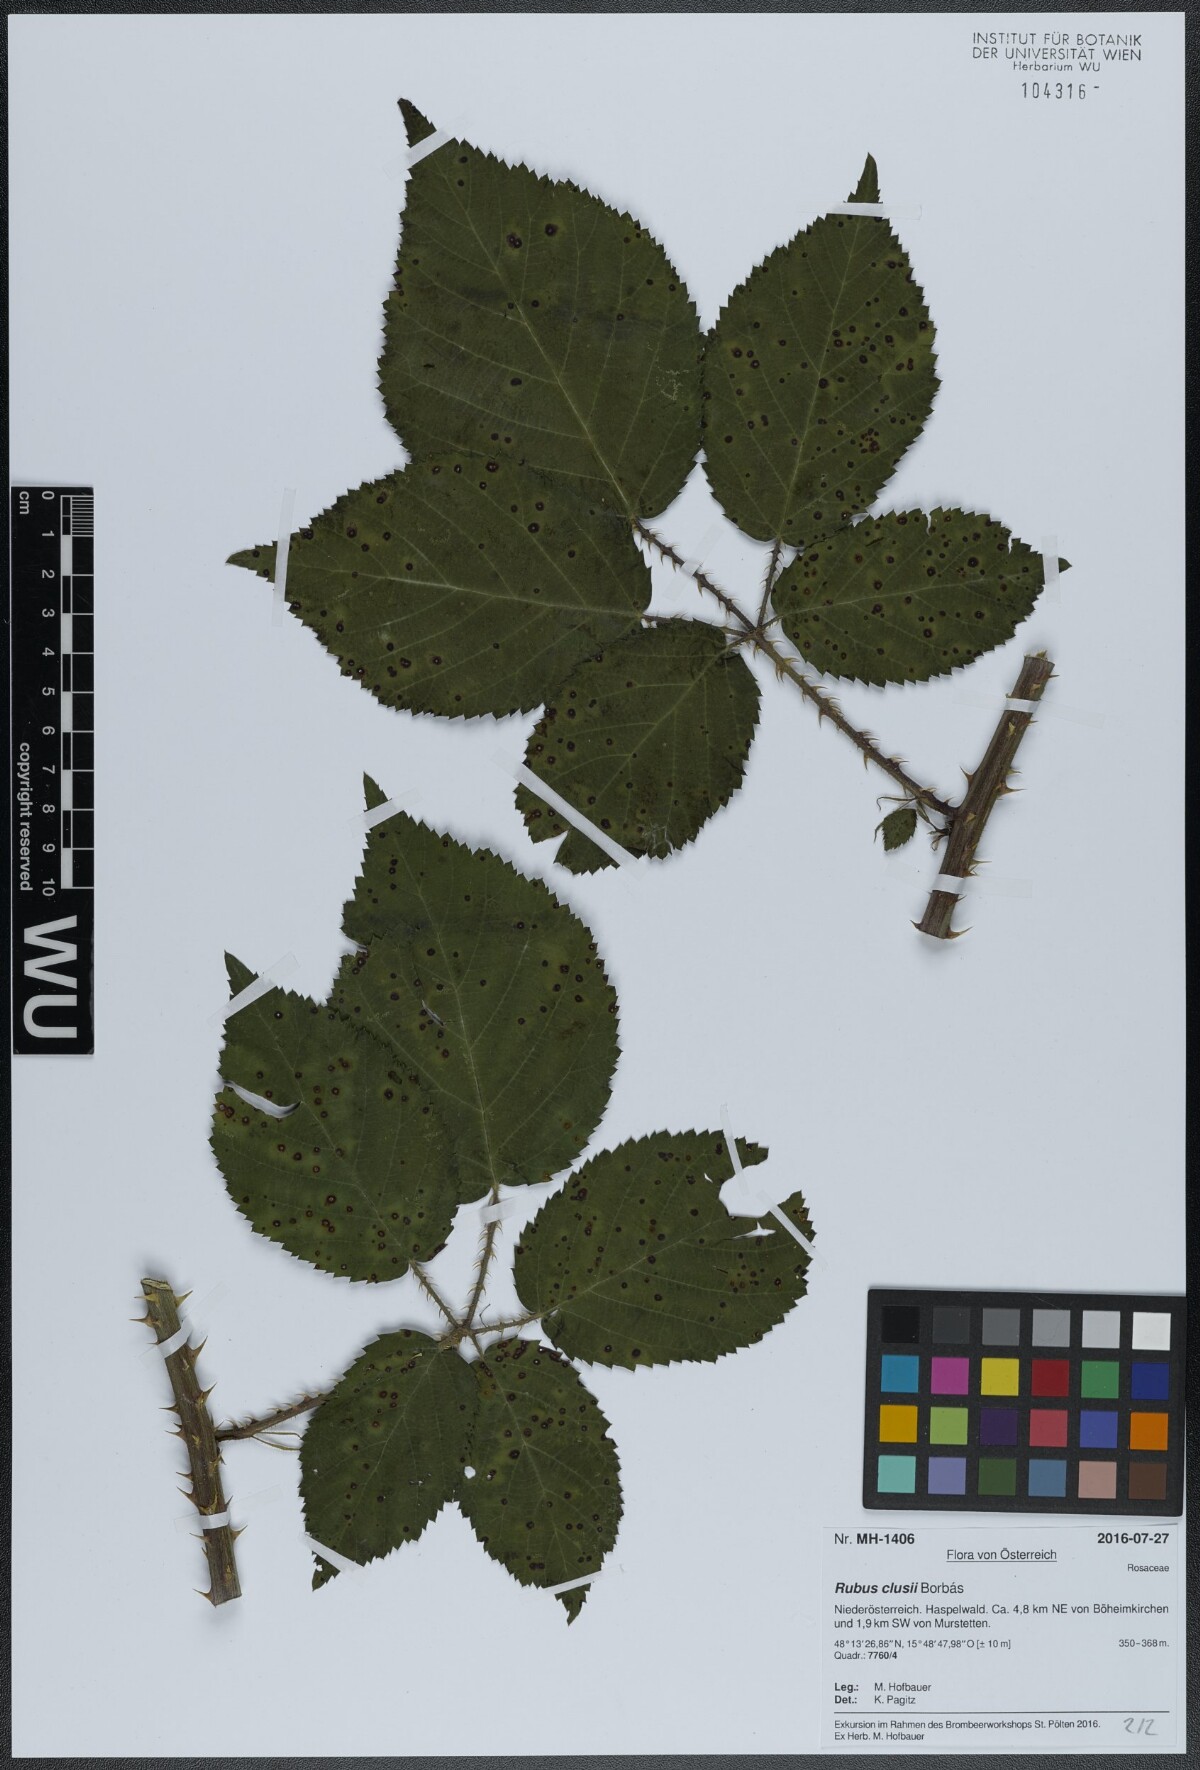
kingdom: Plantae
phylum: Tracheophyta
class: Magnoliopsida
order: Rosales
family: Rosaceae
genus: Rubus
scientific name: Rubus clusii
